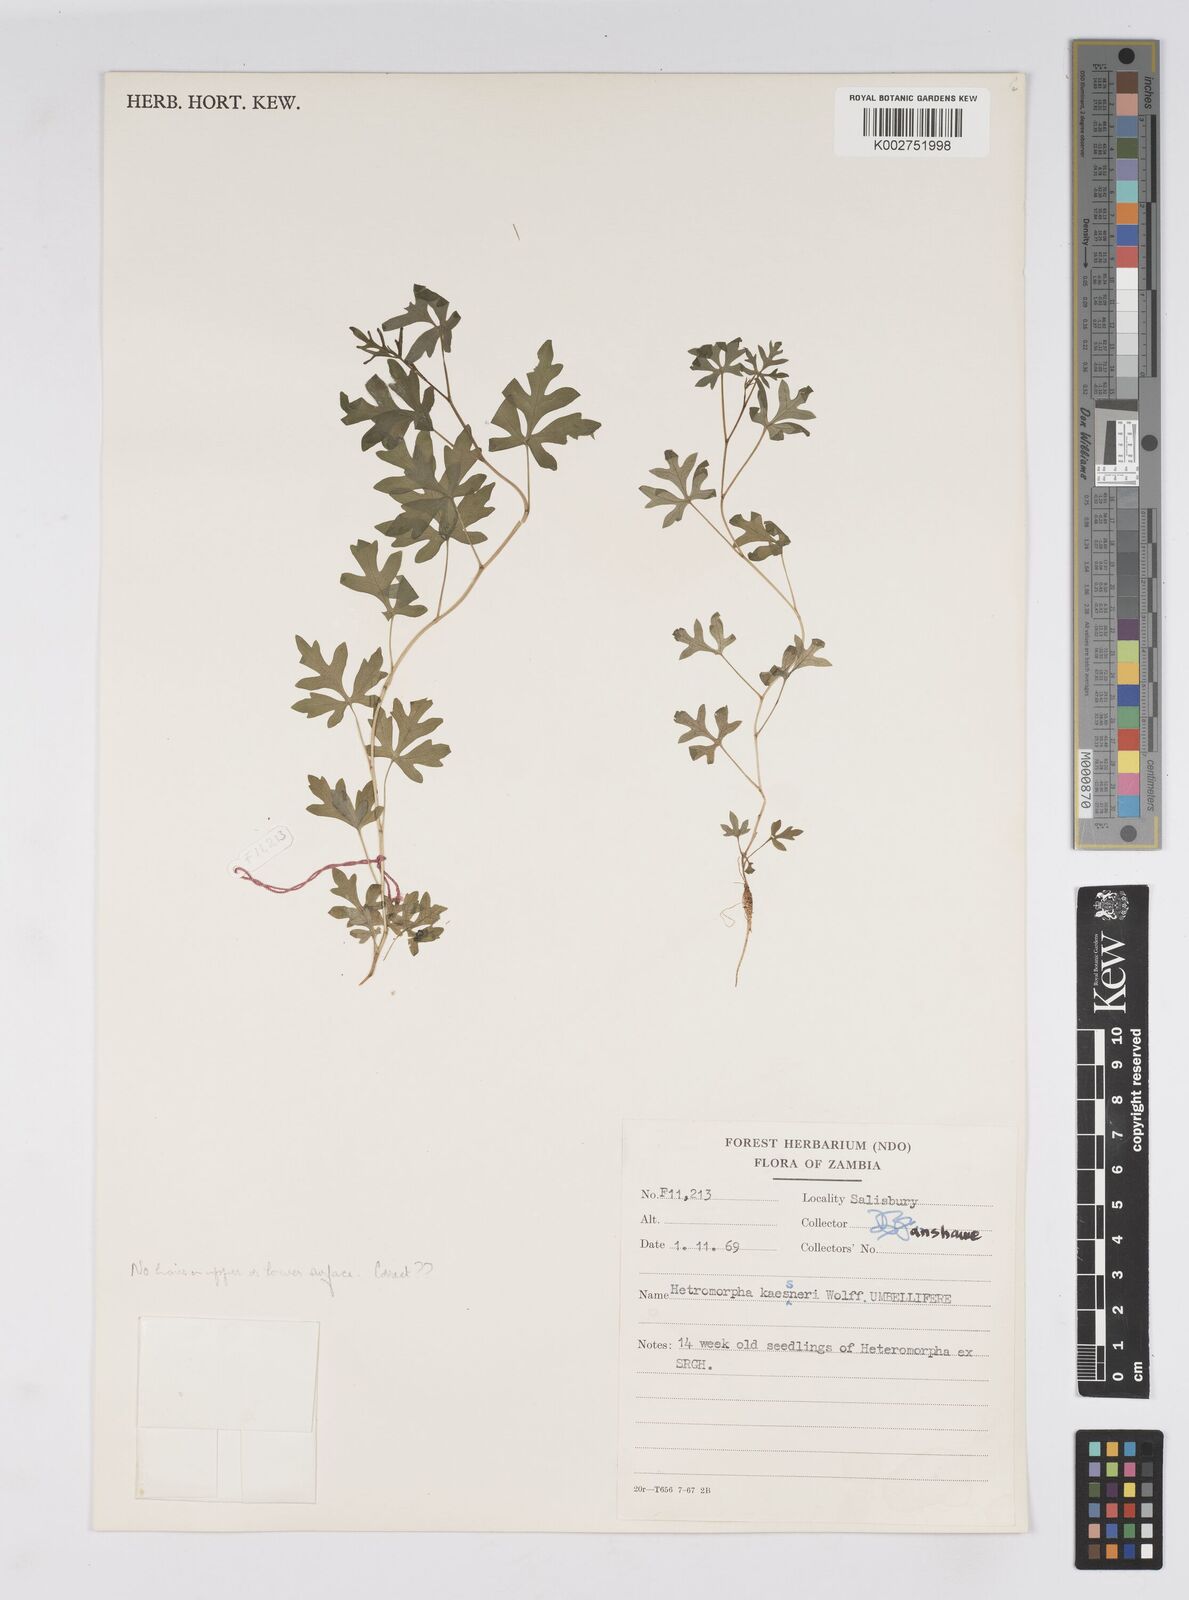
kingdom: Plantae
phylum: Tracheophyta
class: Magnoliopsida
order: Apiales
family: Apiaceae
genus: Heteromorpha
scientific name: Heteromorpha involucrata
